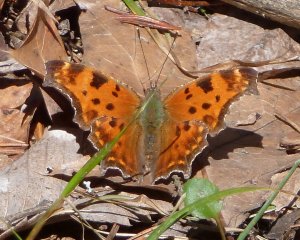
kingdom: Animalia
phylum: Arthropoda
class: Insecta
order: Lepidoptera
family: Nymphalidae
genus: Polygonia
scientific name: Polygonia comma
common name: Eastern Comma
